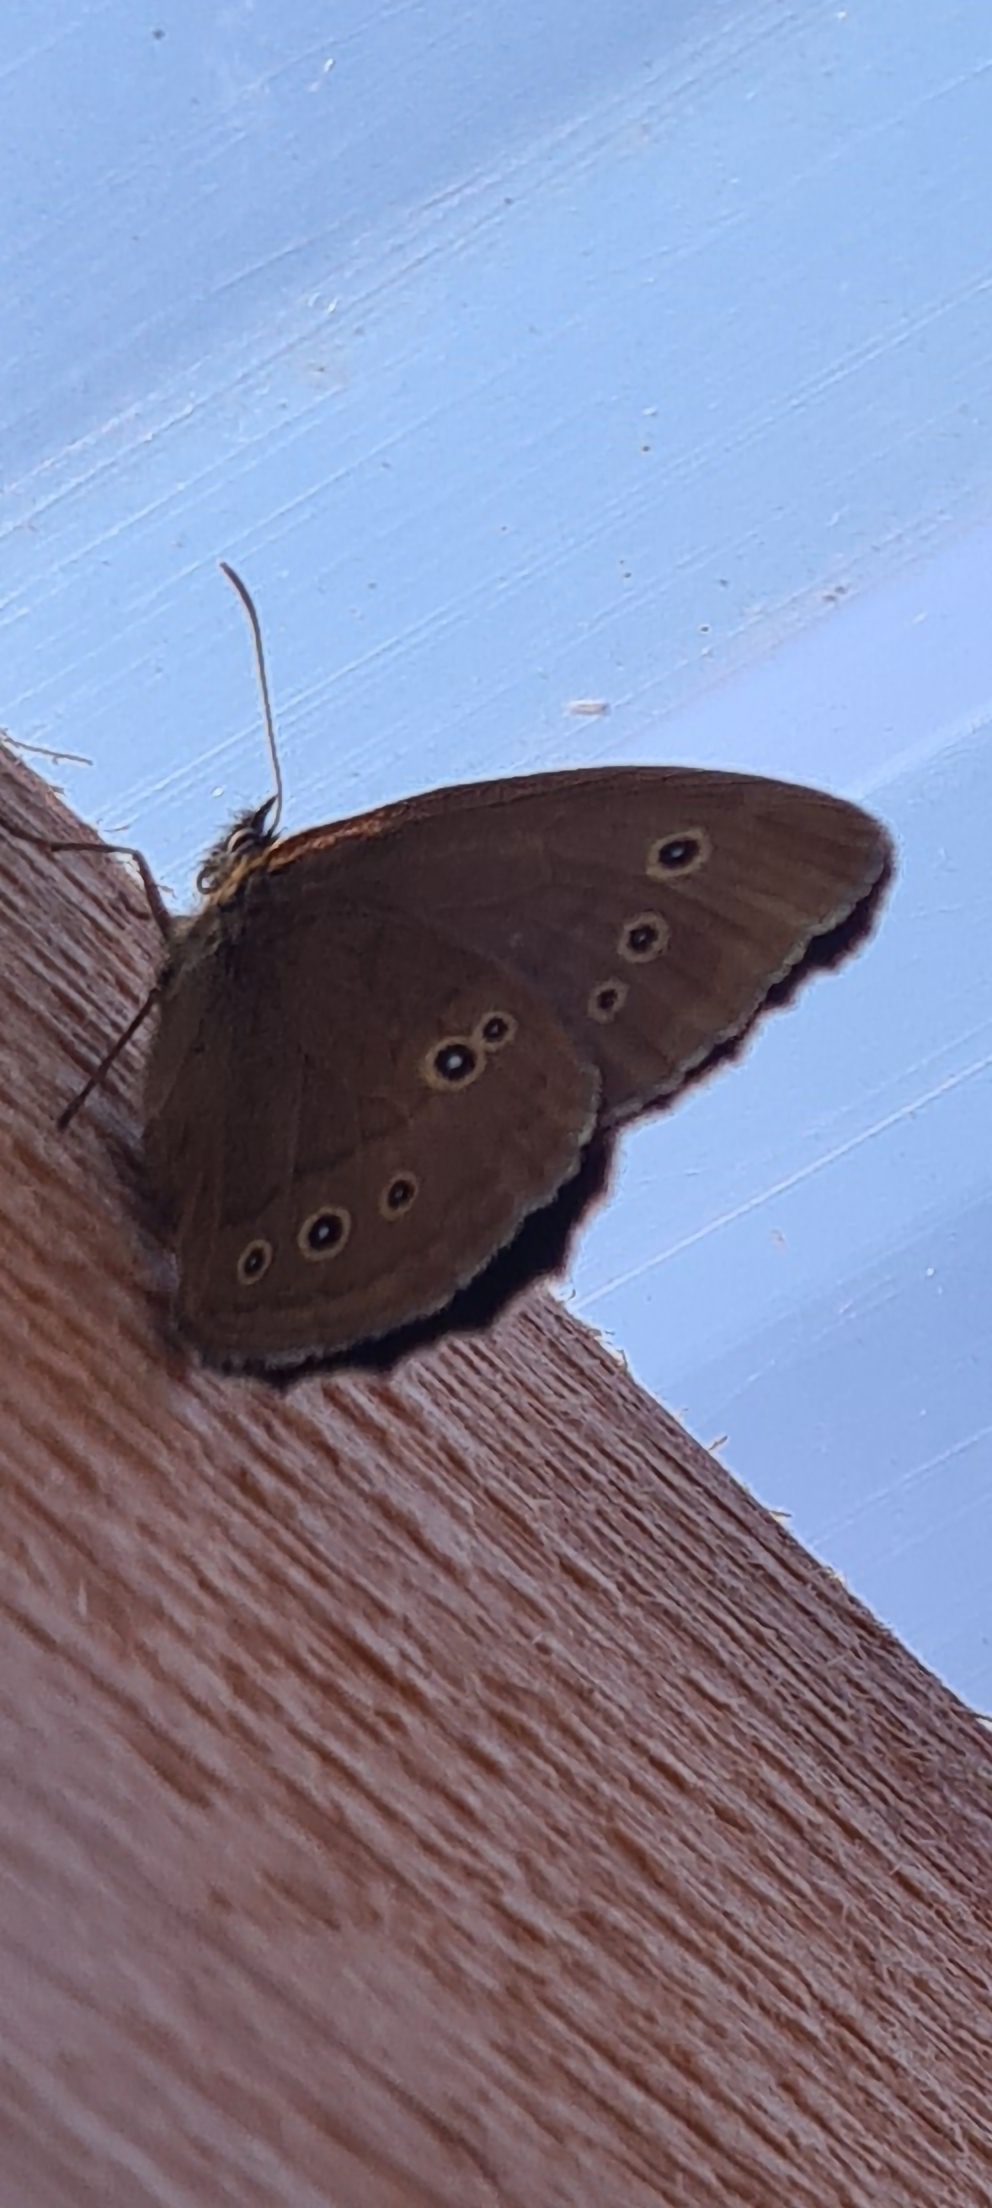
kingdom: Animalia
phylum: Arthropoda
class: Insecta
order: Lepidoptera
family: Nymphalidae
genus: Aphantopus
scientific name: Aphantopus hyperantus
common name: Engrandøje
